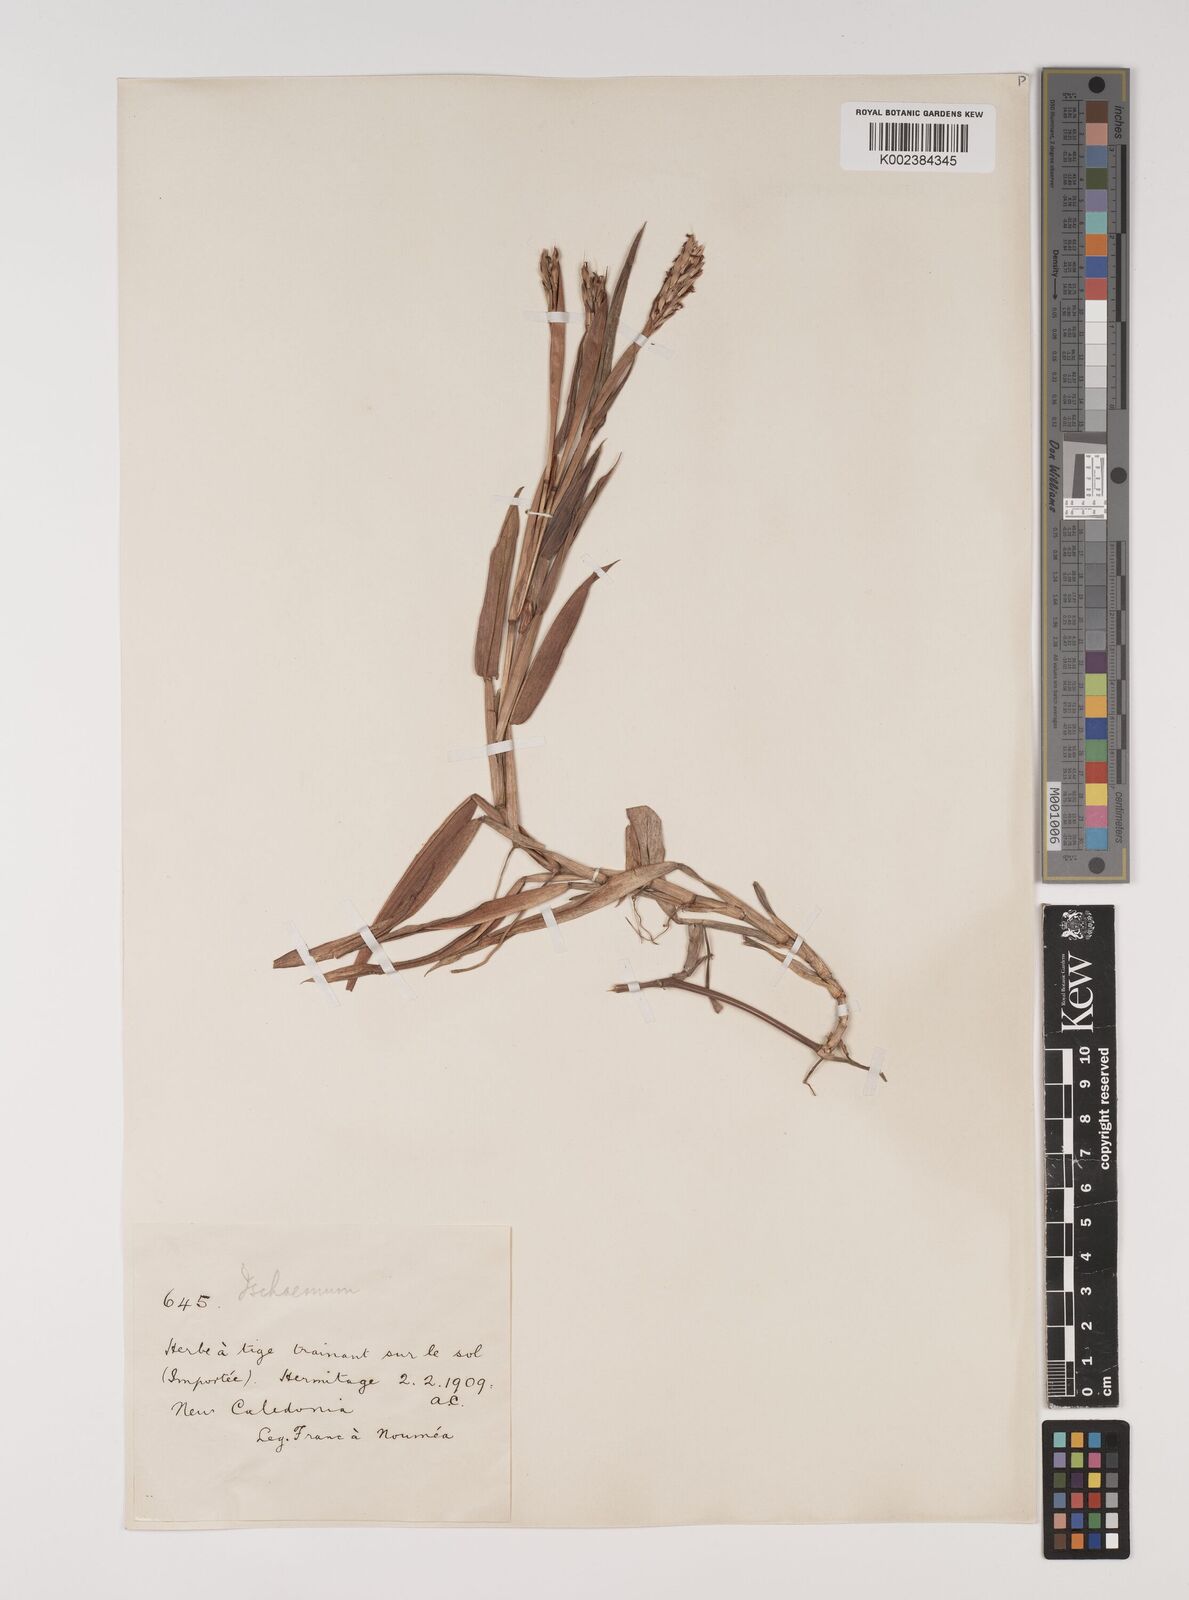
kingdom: Plantae
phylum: Tracheophyta
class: Liliopsida
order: Poales
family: Poaceae
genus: Ischaemum
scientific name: Ischaemum muticum
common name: Drought grass
